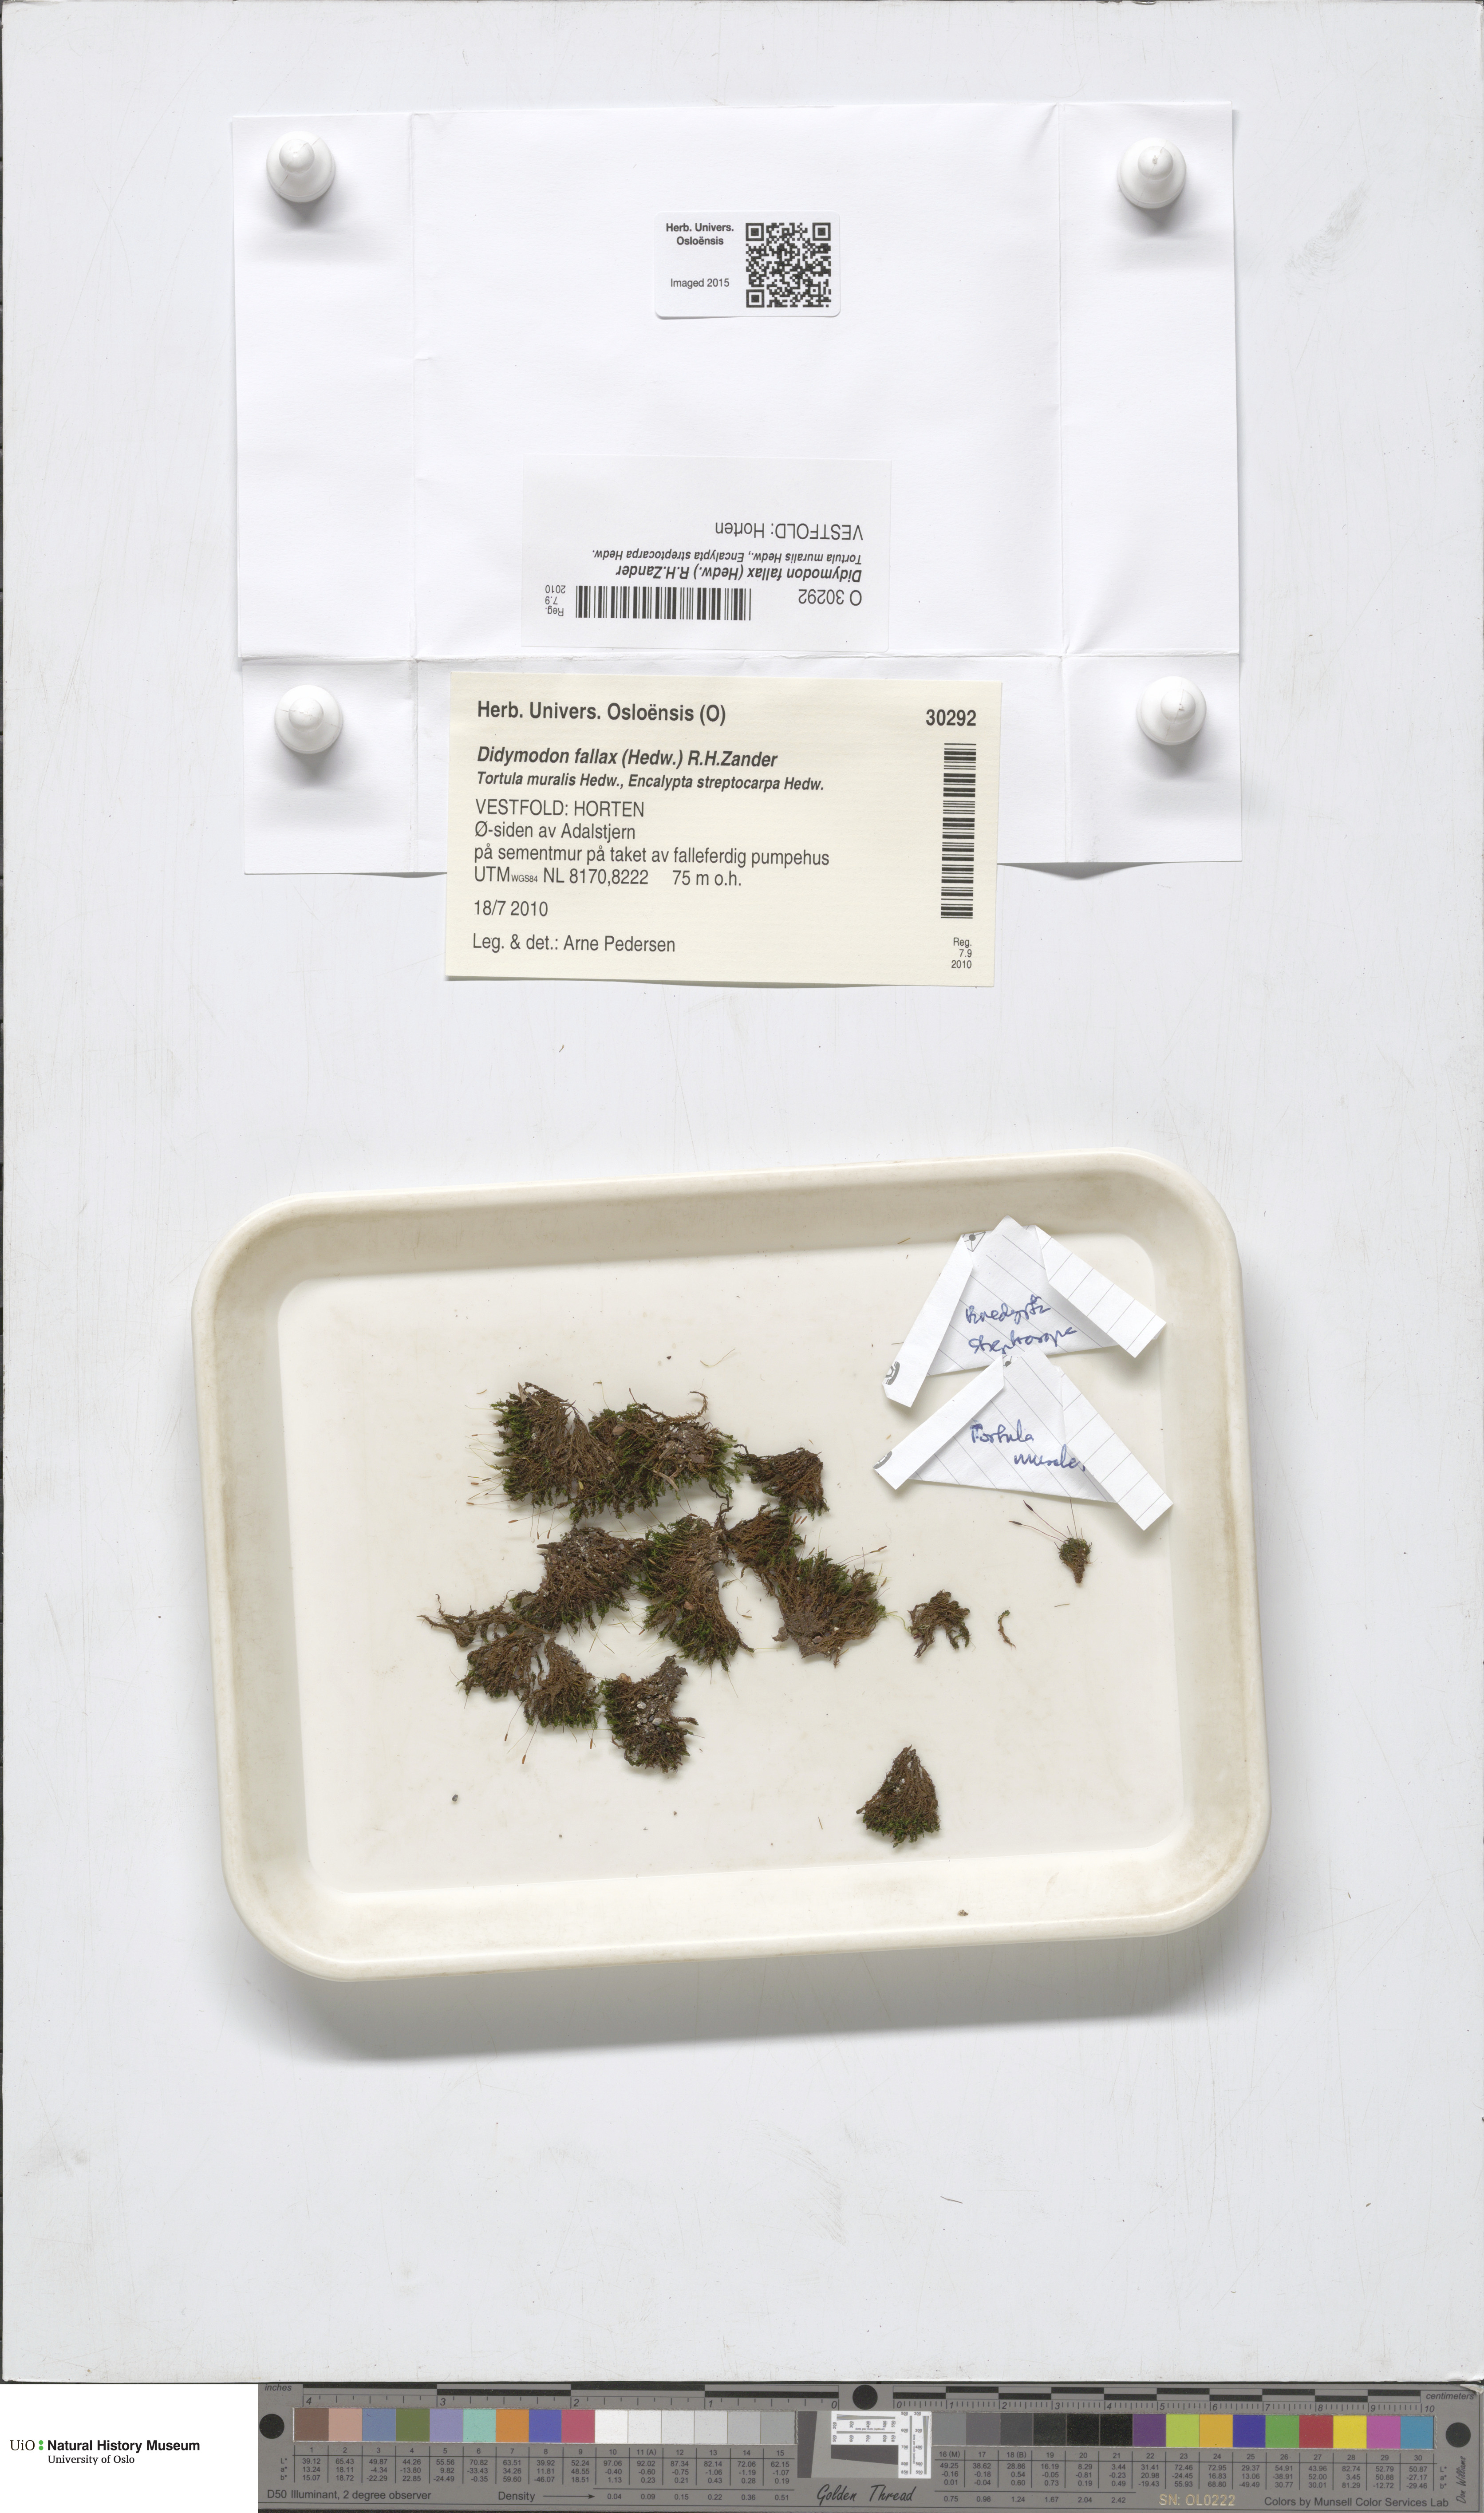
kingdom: Plantae
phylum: Bryophyta
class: Bryopsida
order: Pottiales
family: Pottiaceae
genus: Geheebia
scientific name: Geheebia fallax
